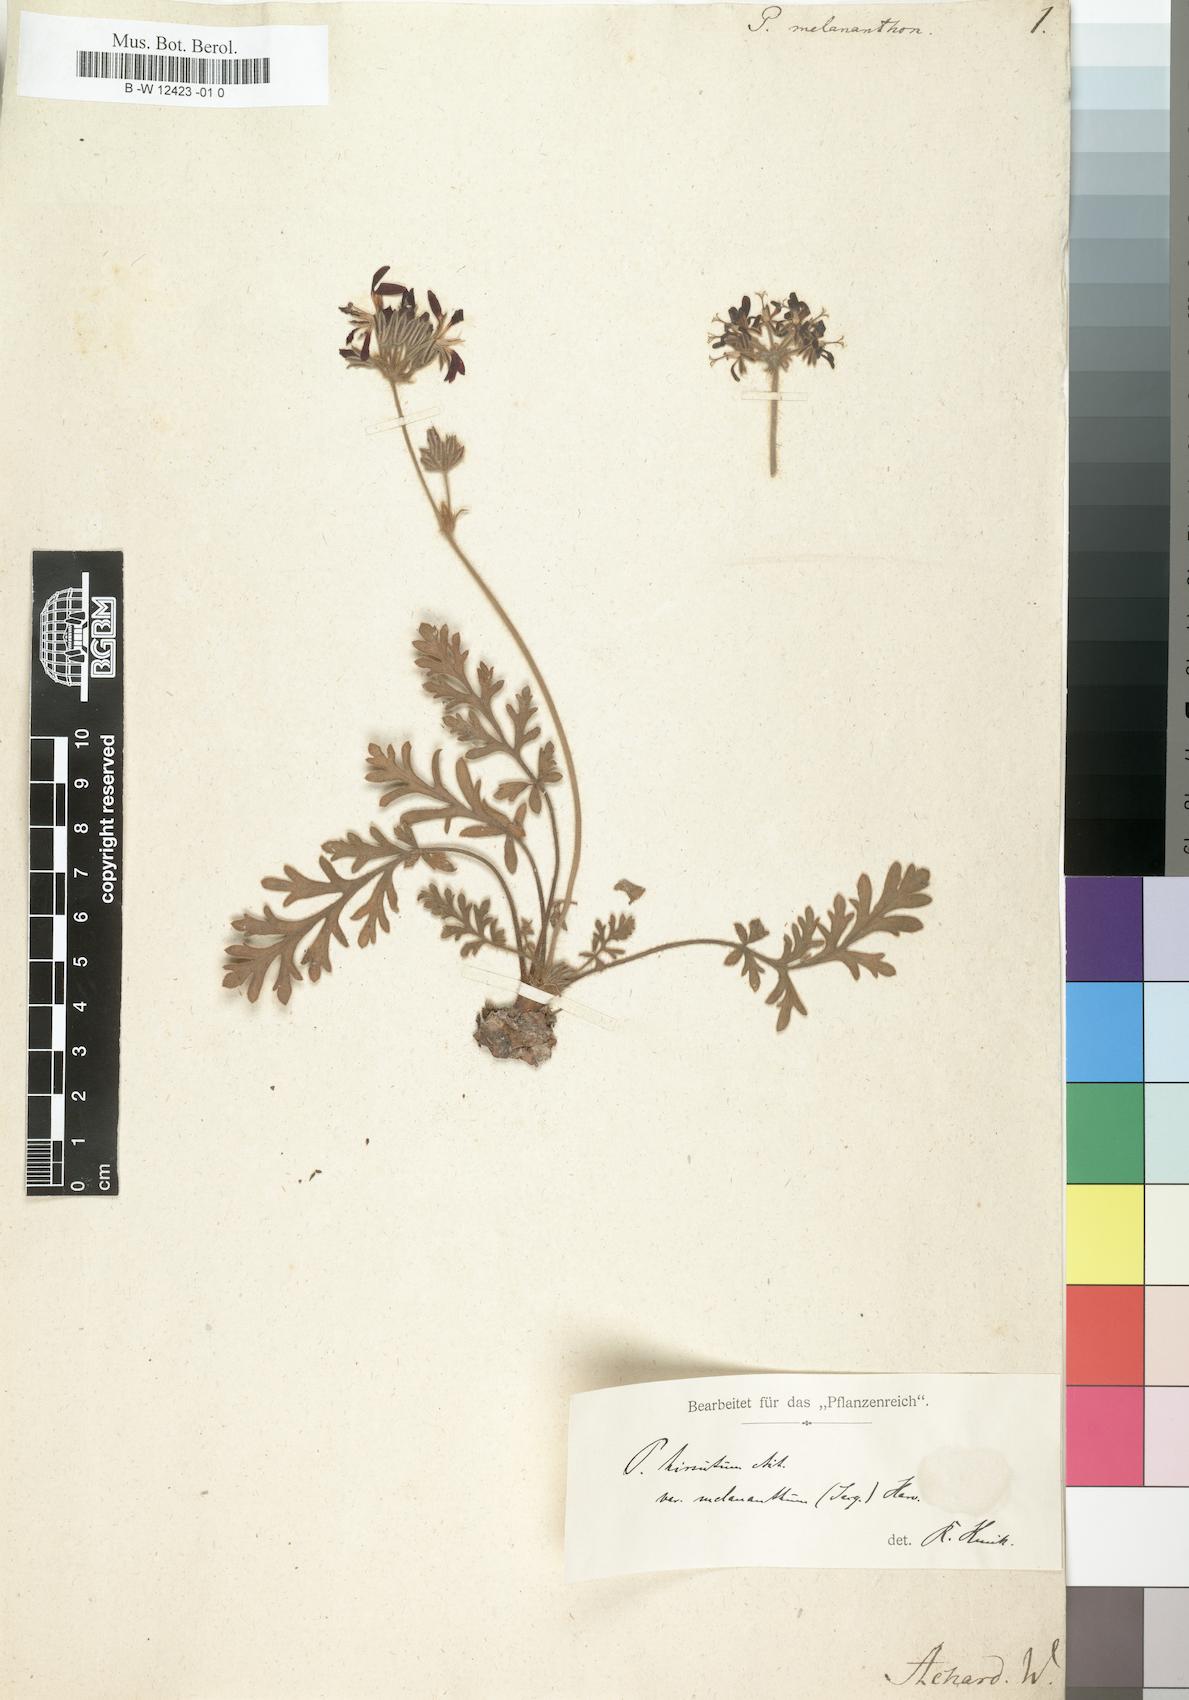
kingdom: Plantae
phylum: Tracheophyta
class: Magnoliopsida
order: Geraniales
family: Geraniaceae
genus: Pelargonium
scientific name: Pelargonium auritum
